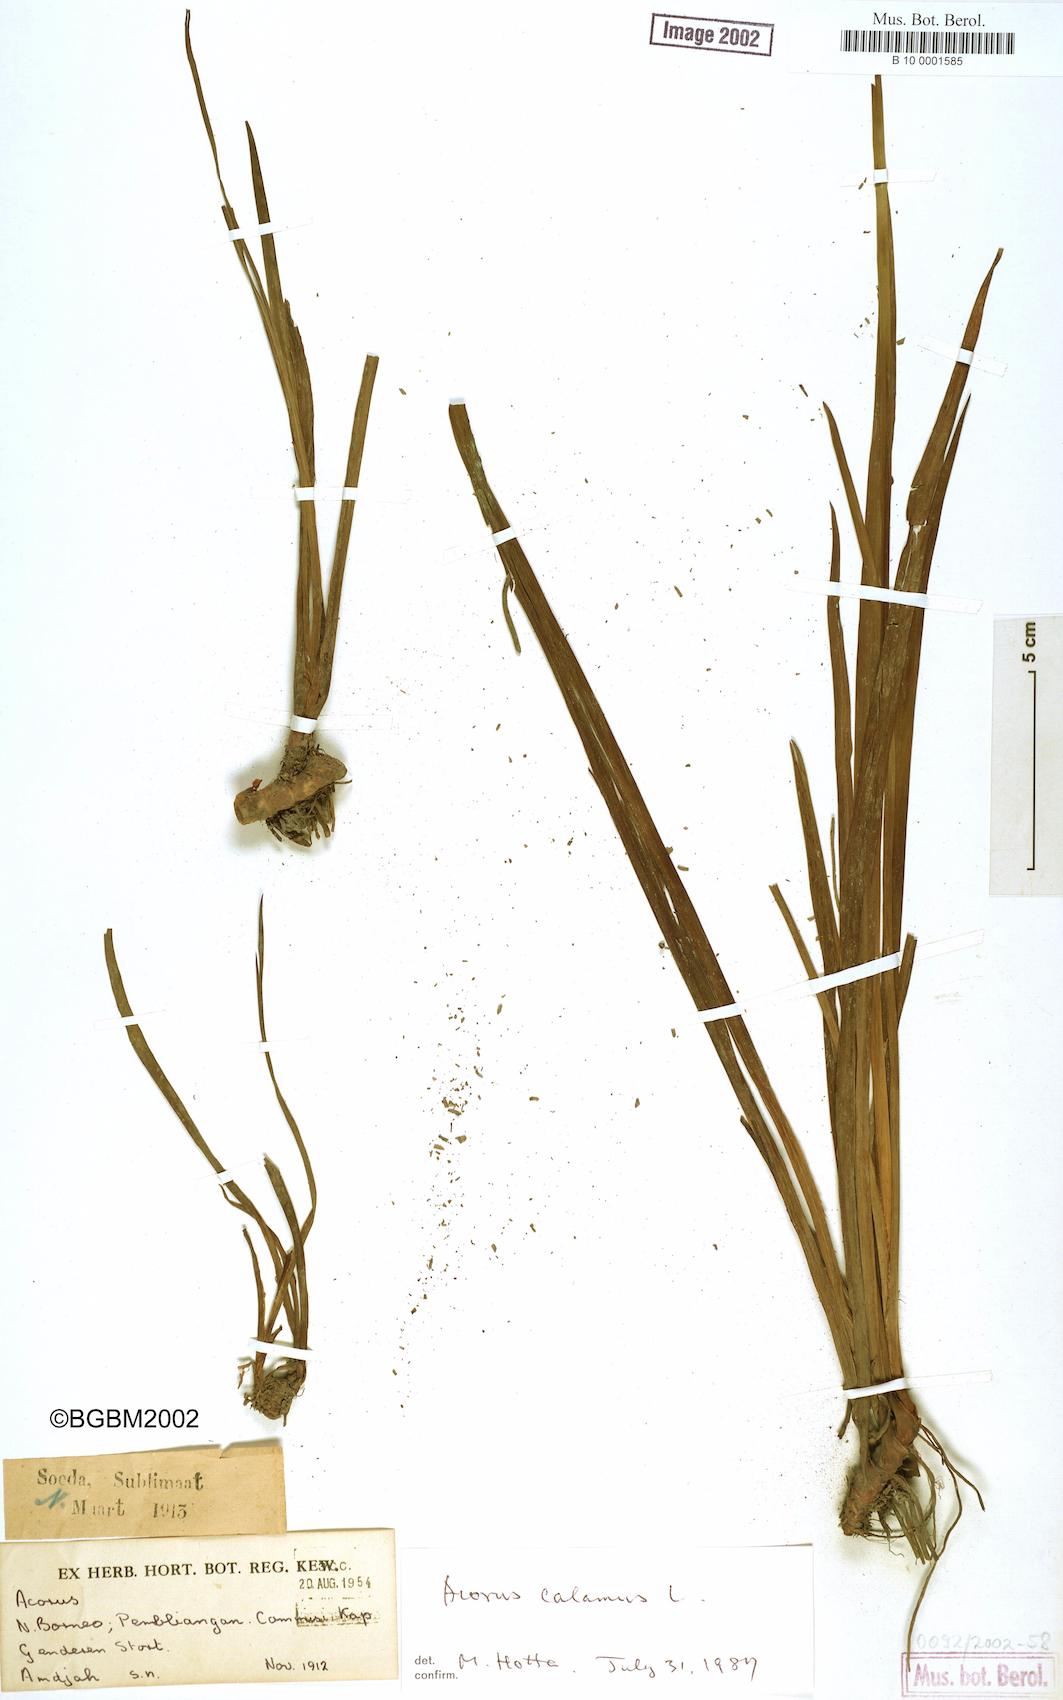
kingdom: Plantae
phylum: Tracheophyta
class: Liliopsida
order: Acorales
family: Acoraceae
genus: Acorus
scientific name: Acorus calamus
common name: Sweet-flag
